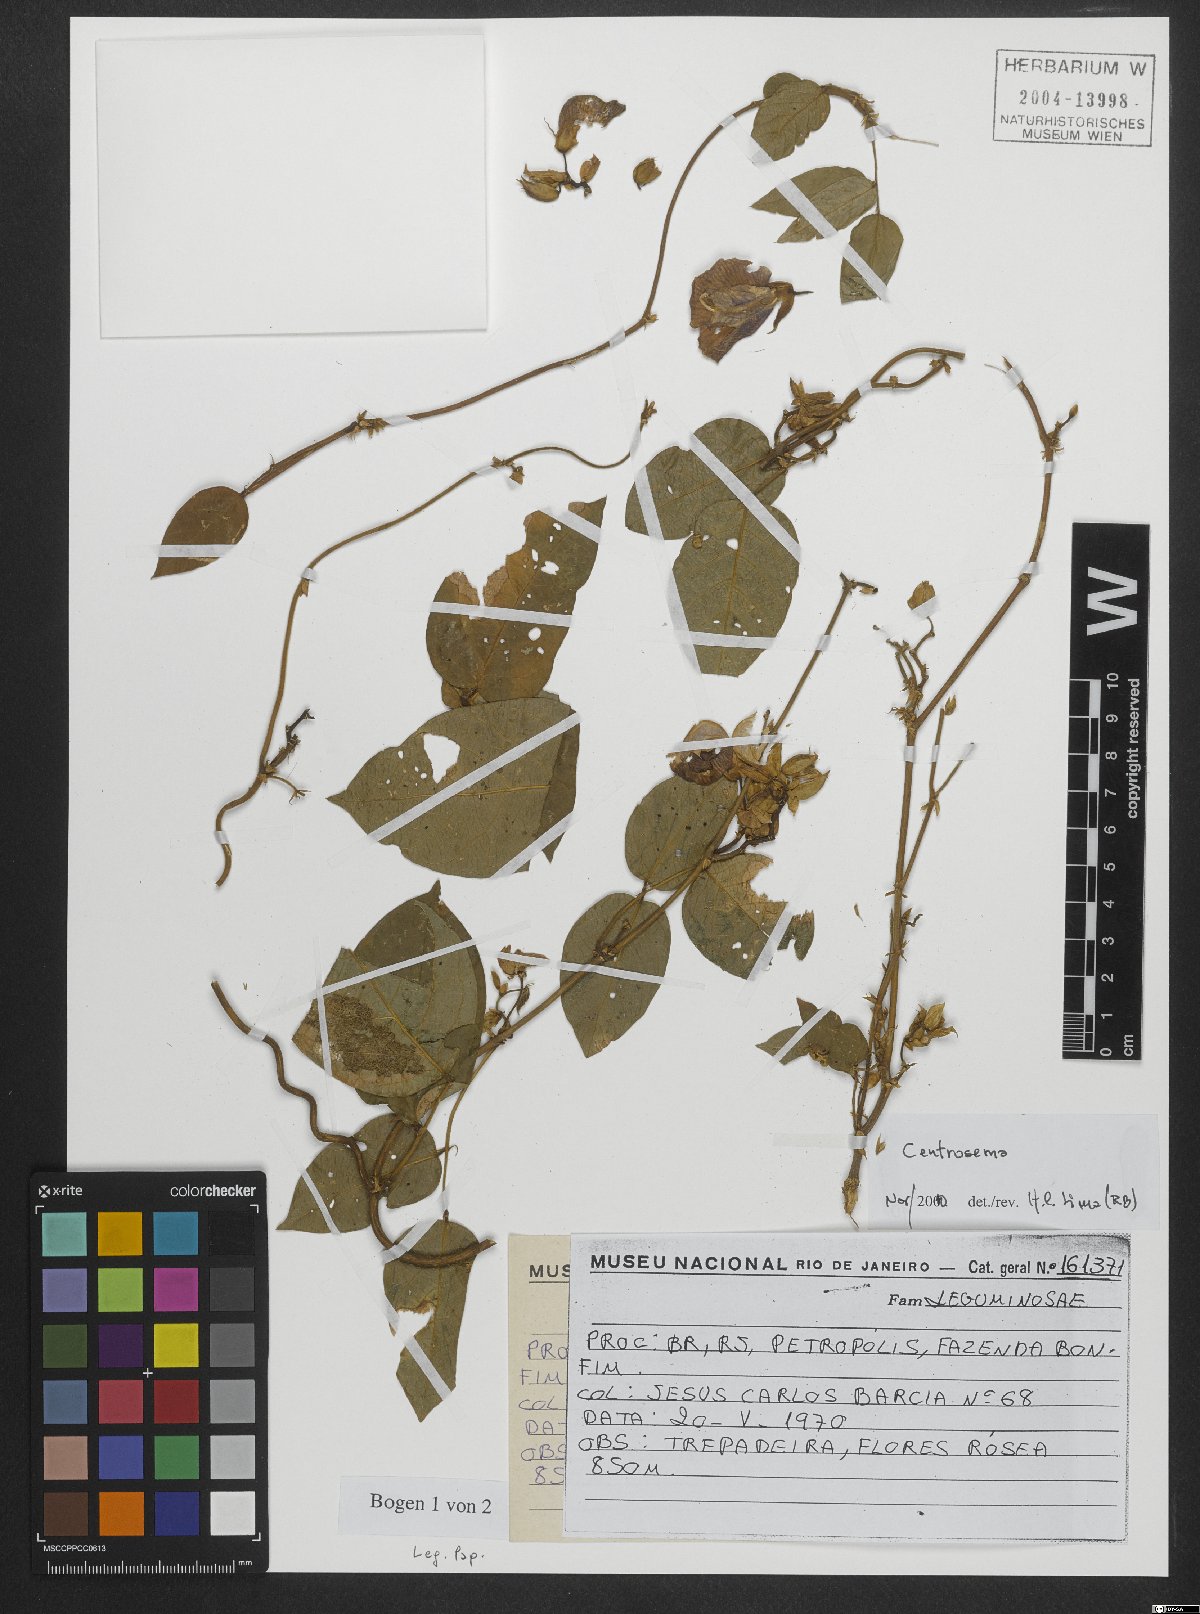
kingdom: Plantae
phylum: Tracheophyta
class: Magnoliopsida
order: Fabales
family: Fabaceae
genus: Centrosema
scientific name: Centrosema
